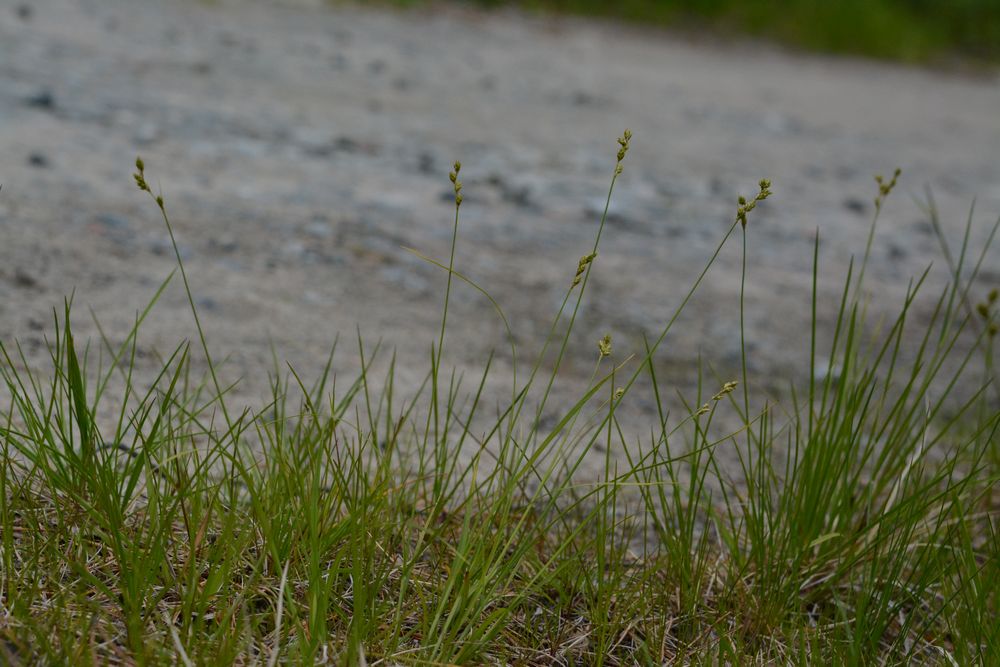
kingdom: Plantae
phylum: Tracheophyta
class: Liliopsida
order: Poales
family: Cyperaceae
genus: Carex
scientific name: Carex brunnescens
